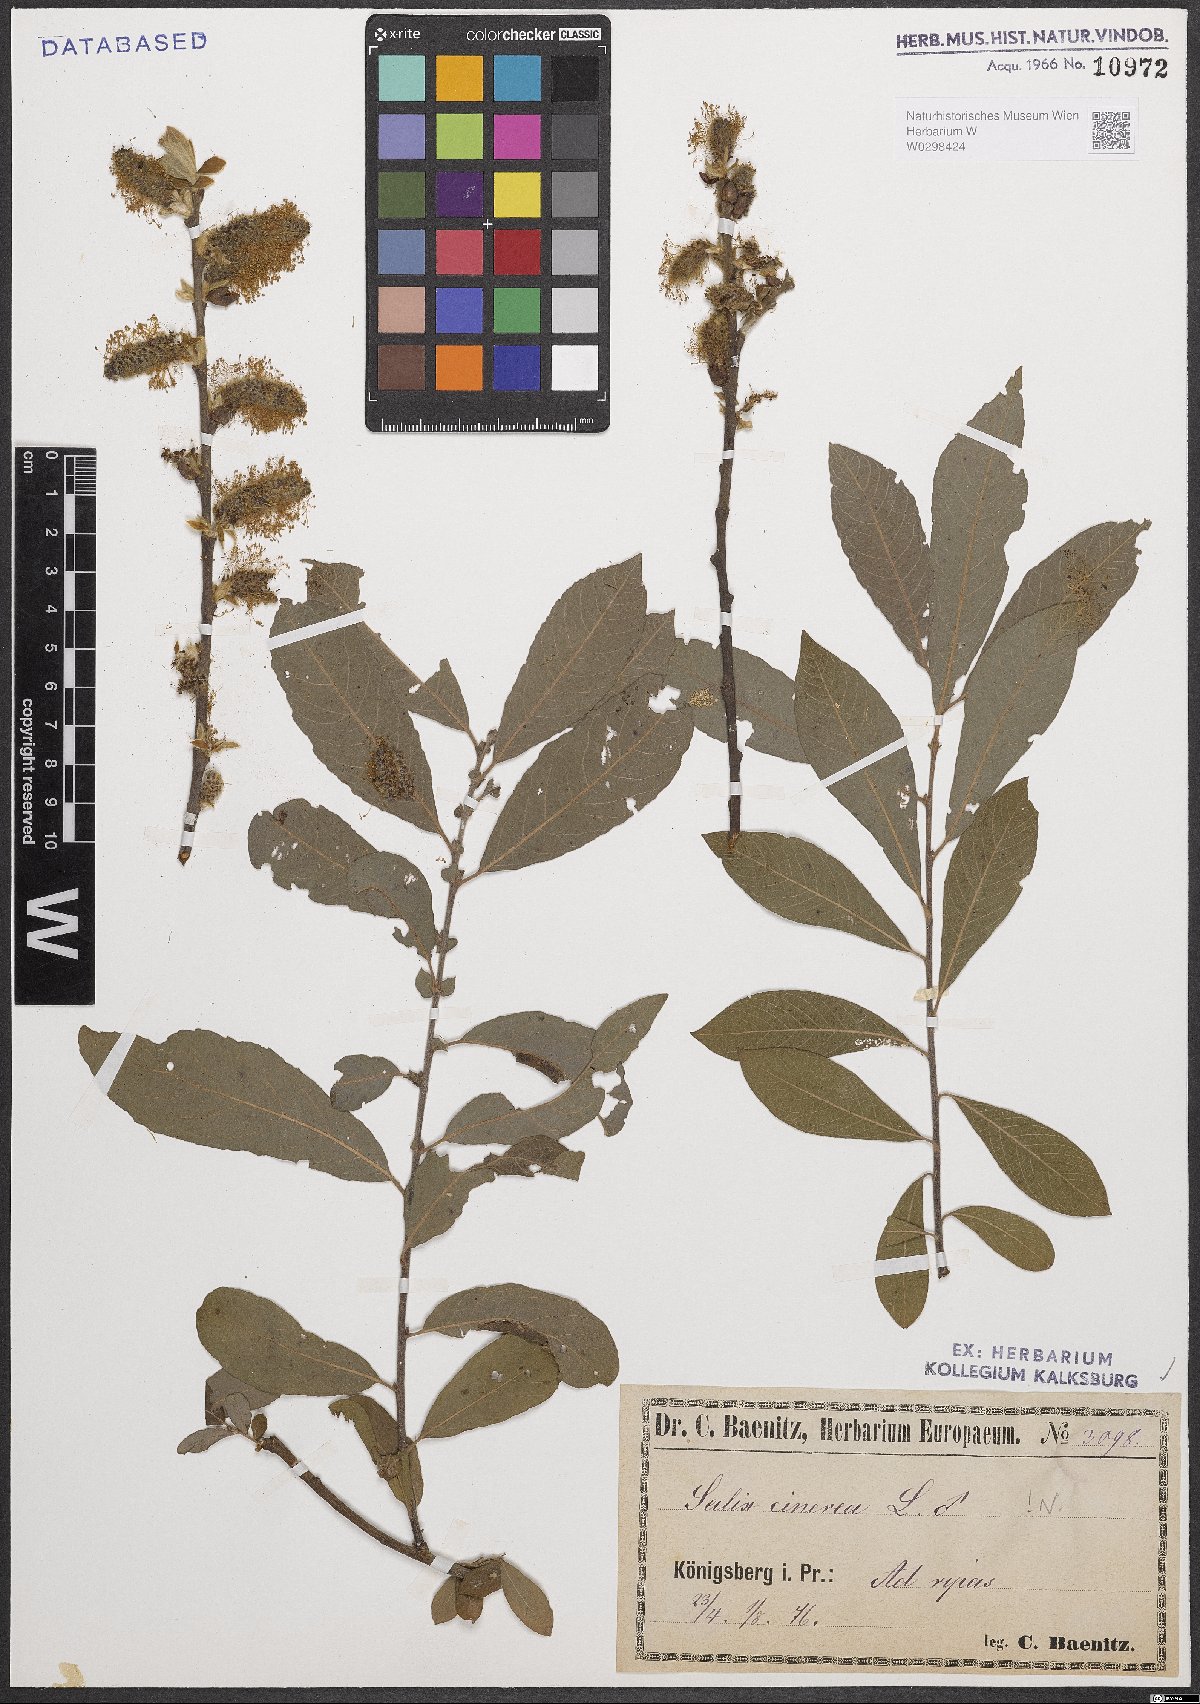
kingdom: Plantae
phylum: Tracheophyta
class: Magnoliopsida
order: Malpighiales
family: Salicaceae
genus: Salix
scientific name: Salix cinerea
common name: Common sallow
